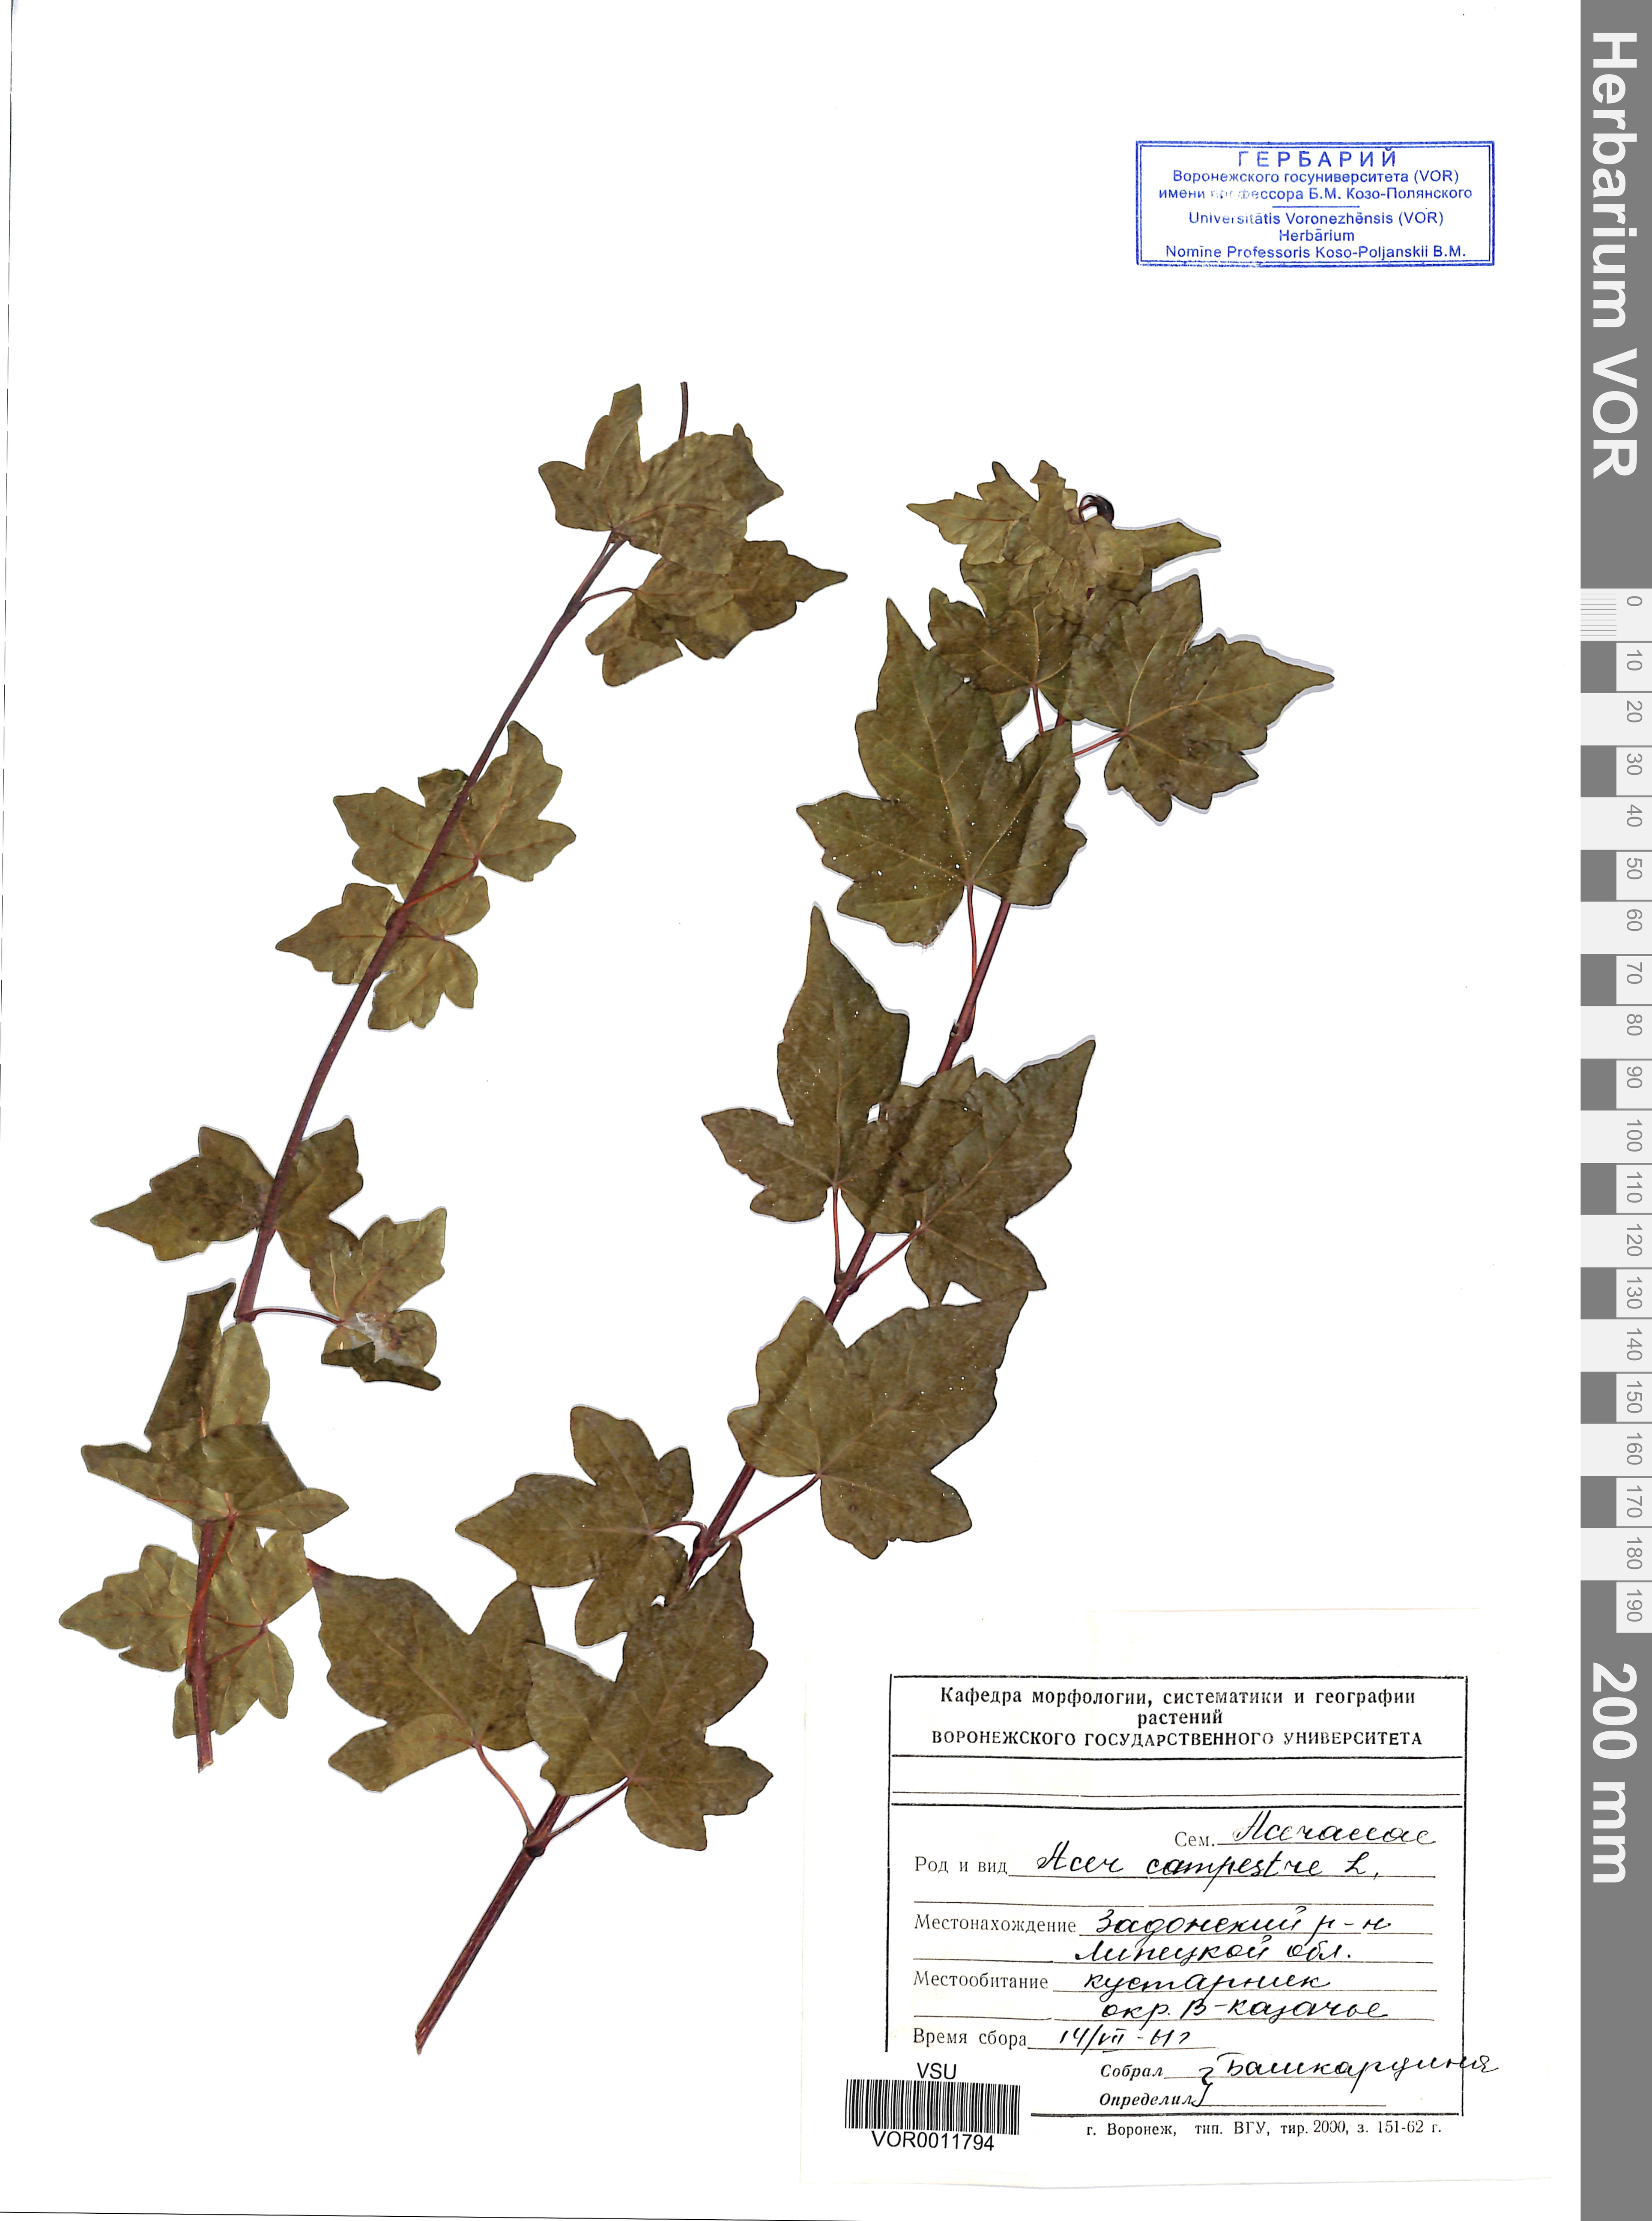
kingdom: Plantae
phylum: Tracheophyta
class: Magnoliopsida
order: Sapindales
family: Sapindaceae
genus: Acer
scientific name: Acer campestre
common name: Field maple
